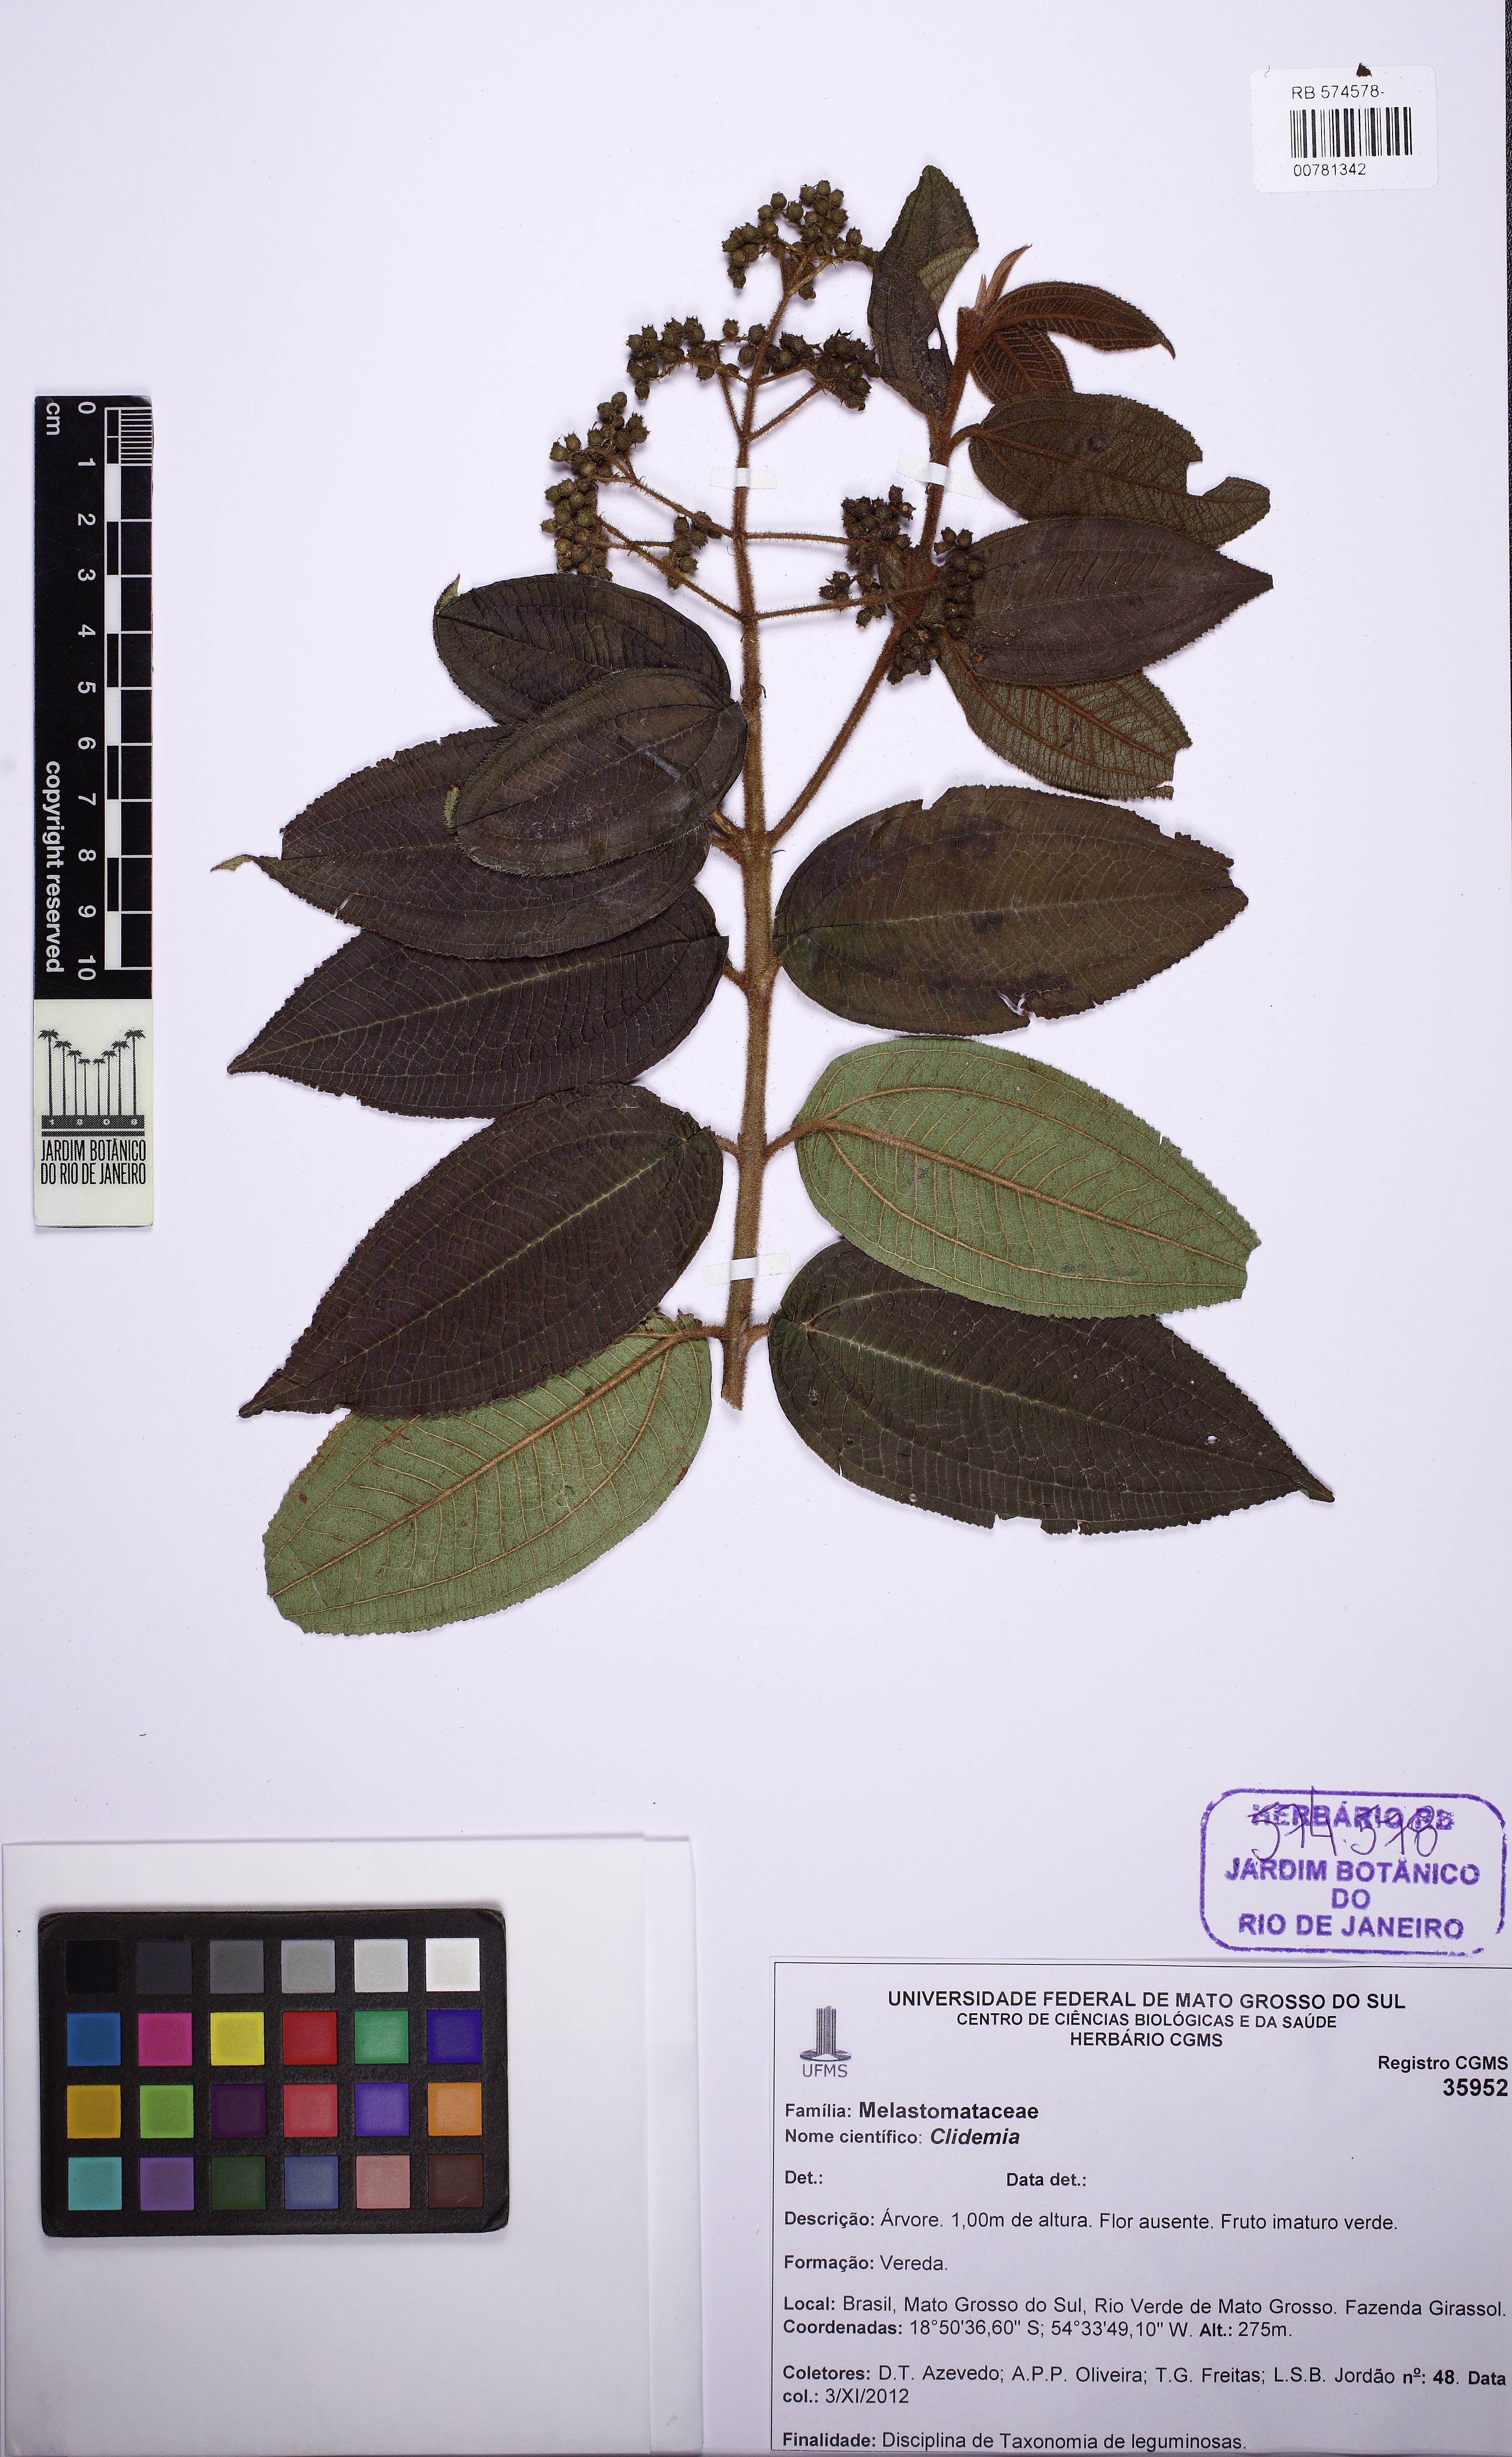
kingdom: Plantae
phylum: Tracheophyta
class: Magnoliopsida
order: Myrtales
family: Melastomataceae
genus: Miconia
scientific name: Miconia ibaguensis
